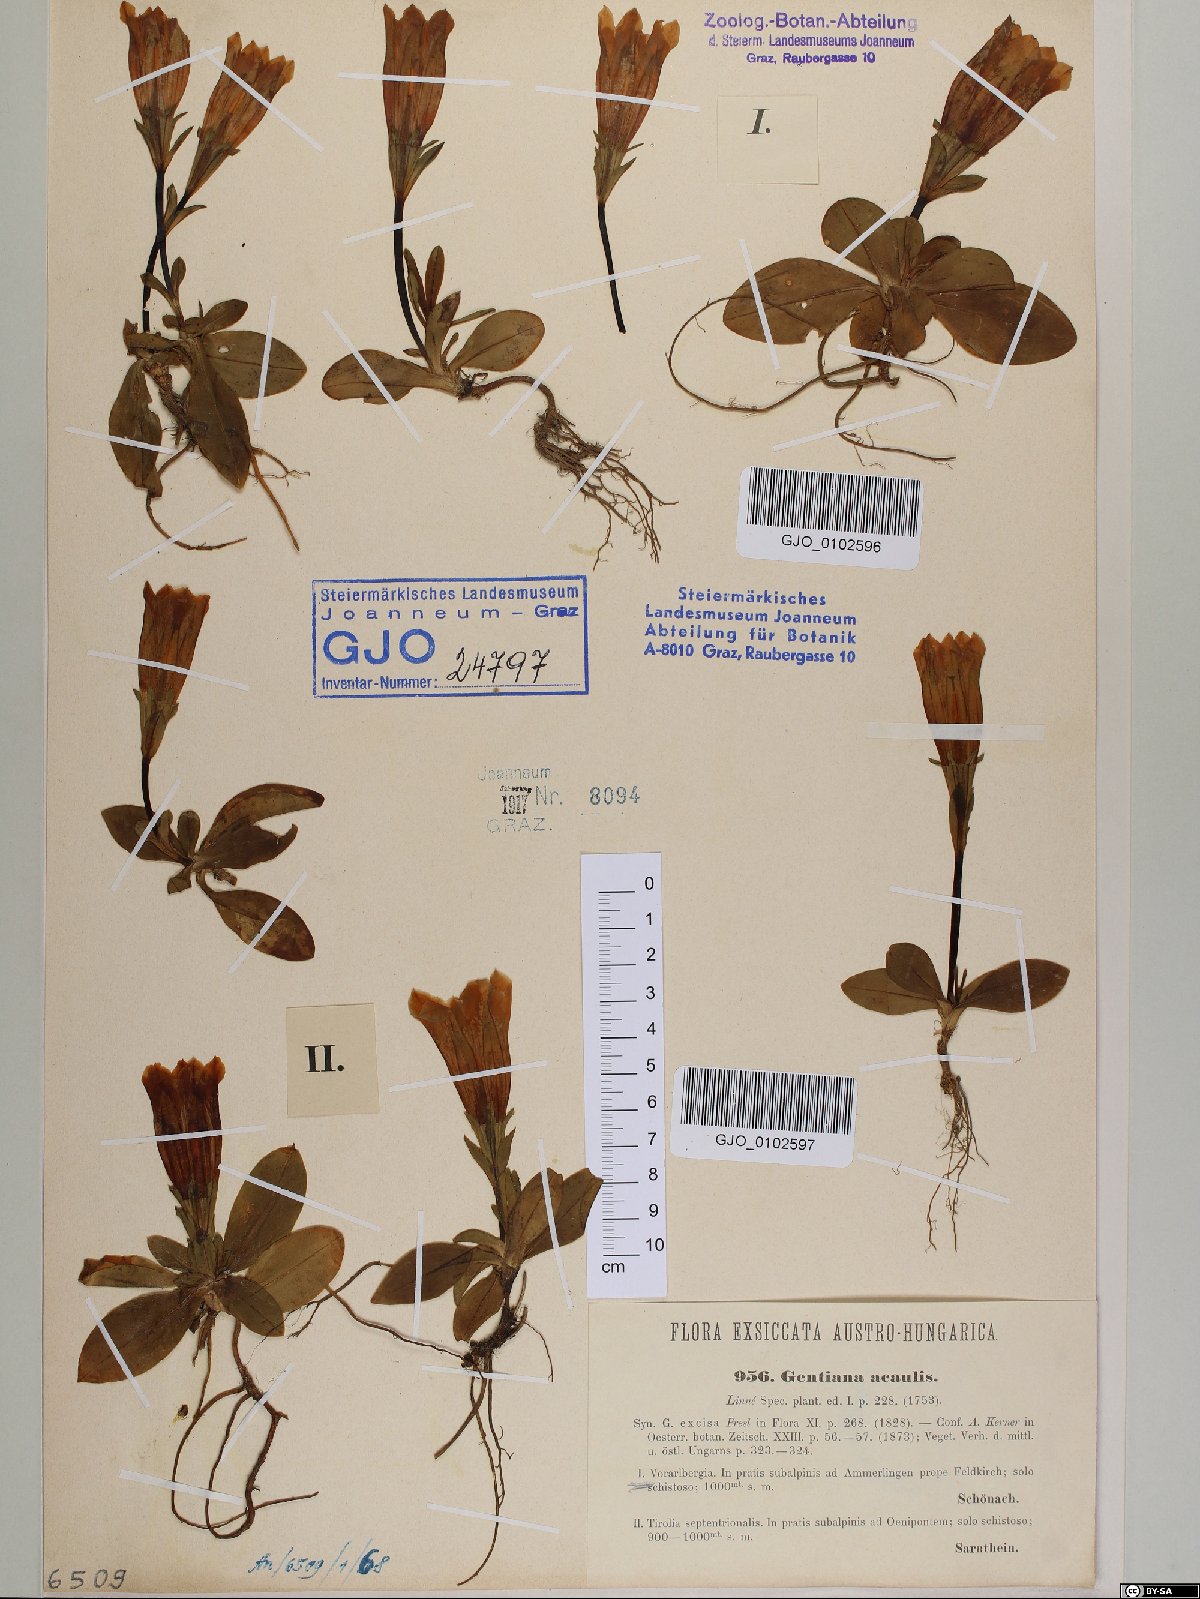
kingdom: Plantae
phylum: Tracheophyta
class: Magnoliopsida
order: Gentianales
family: Gentianaceae
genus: Gentiana
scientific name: Gentiana acaulis
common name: Trumpet gentian
